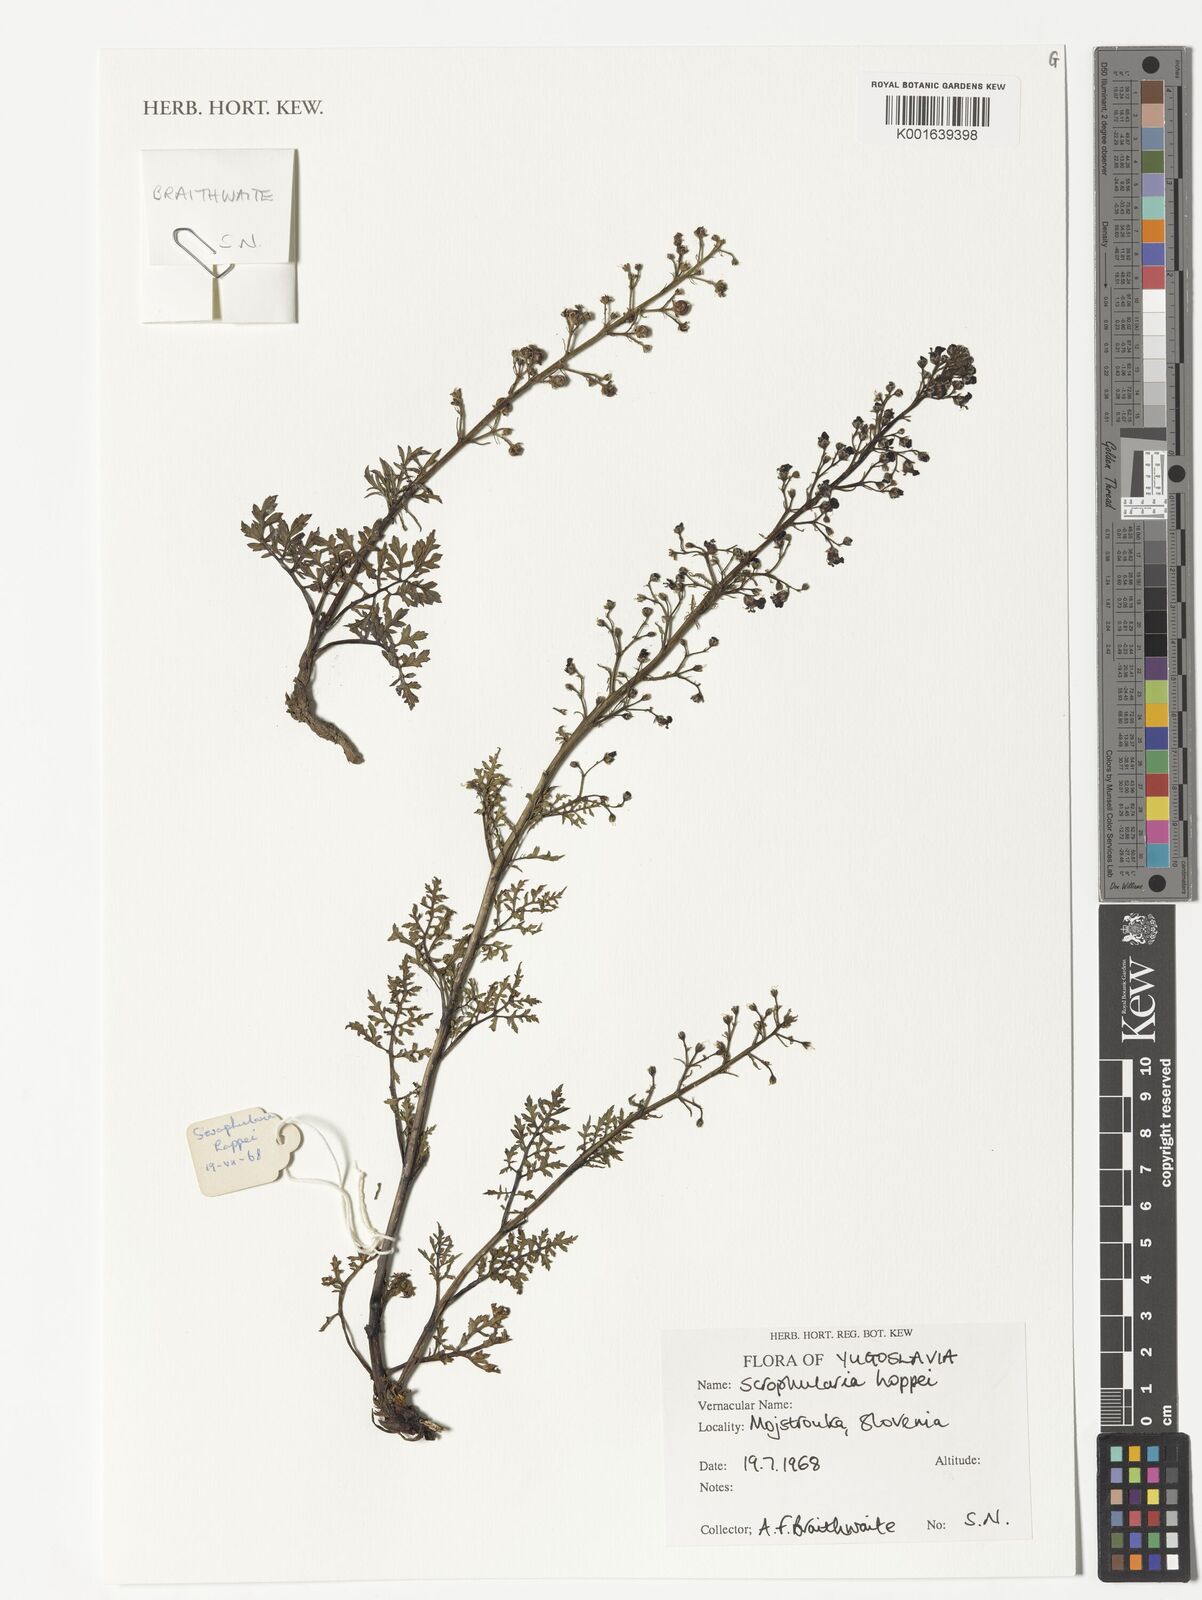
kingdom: Plantae
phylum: Tracheophyta
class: Magnoliopsida
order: Lamiales
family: Scrophulariaceae
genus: Scrophularia
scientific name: Scrophularia canina
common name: French figwort
